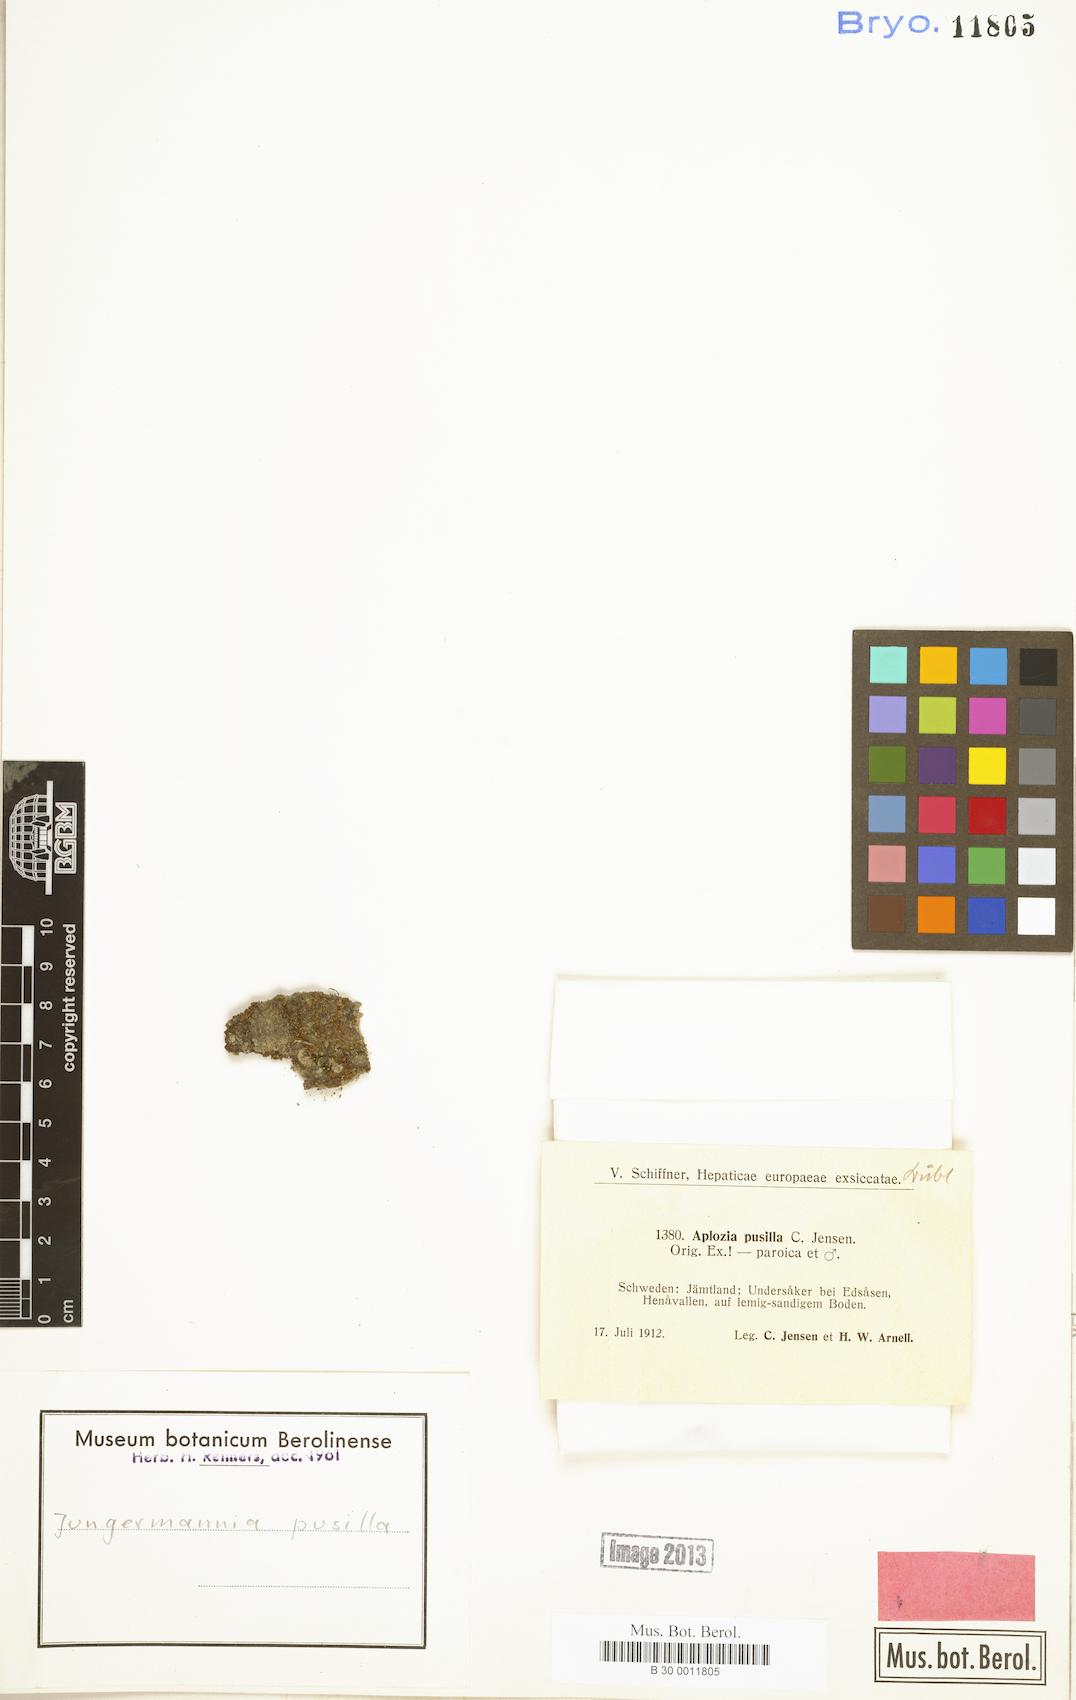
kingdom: Plantae
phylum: Marchantiophyta
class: Jungermanniopsida
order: Jungermanniales
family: Jungermanniaceae
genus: Jungermannia
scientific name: Jungermannia pumila
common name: Dwarf flapwort
